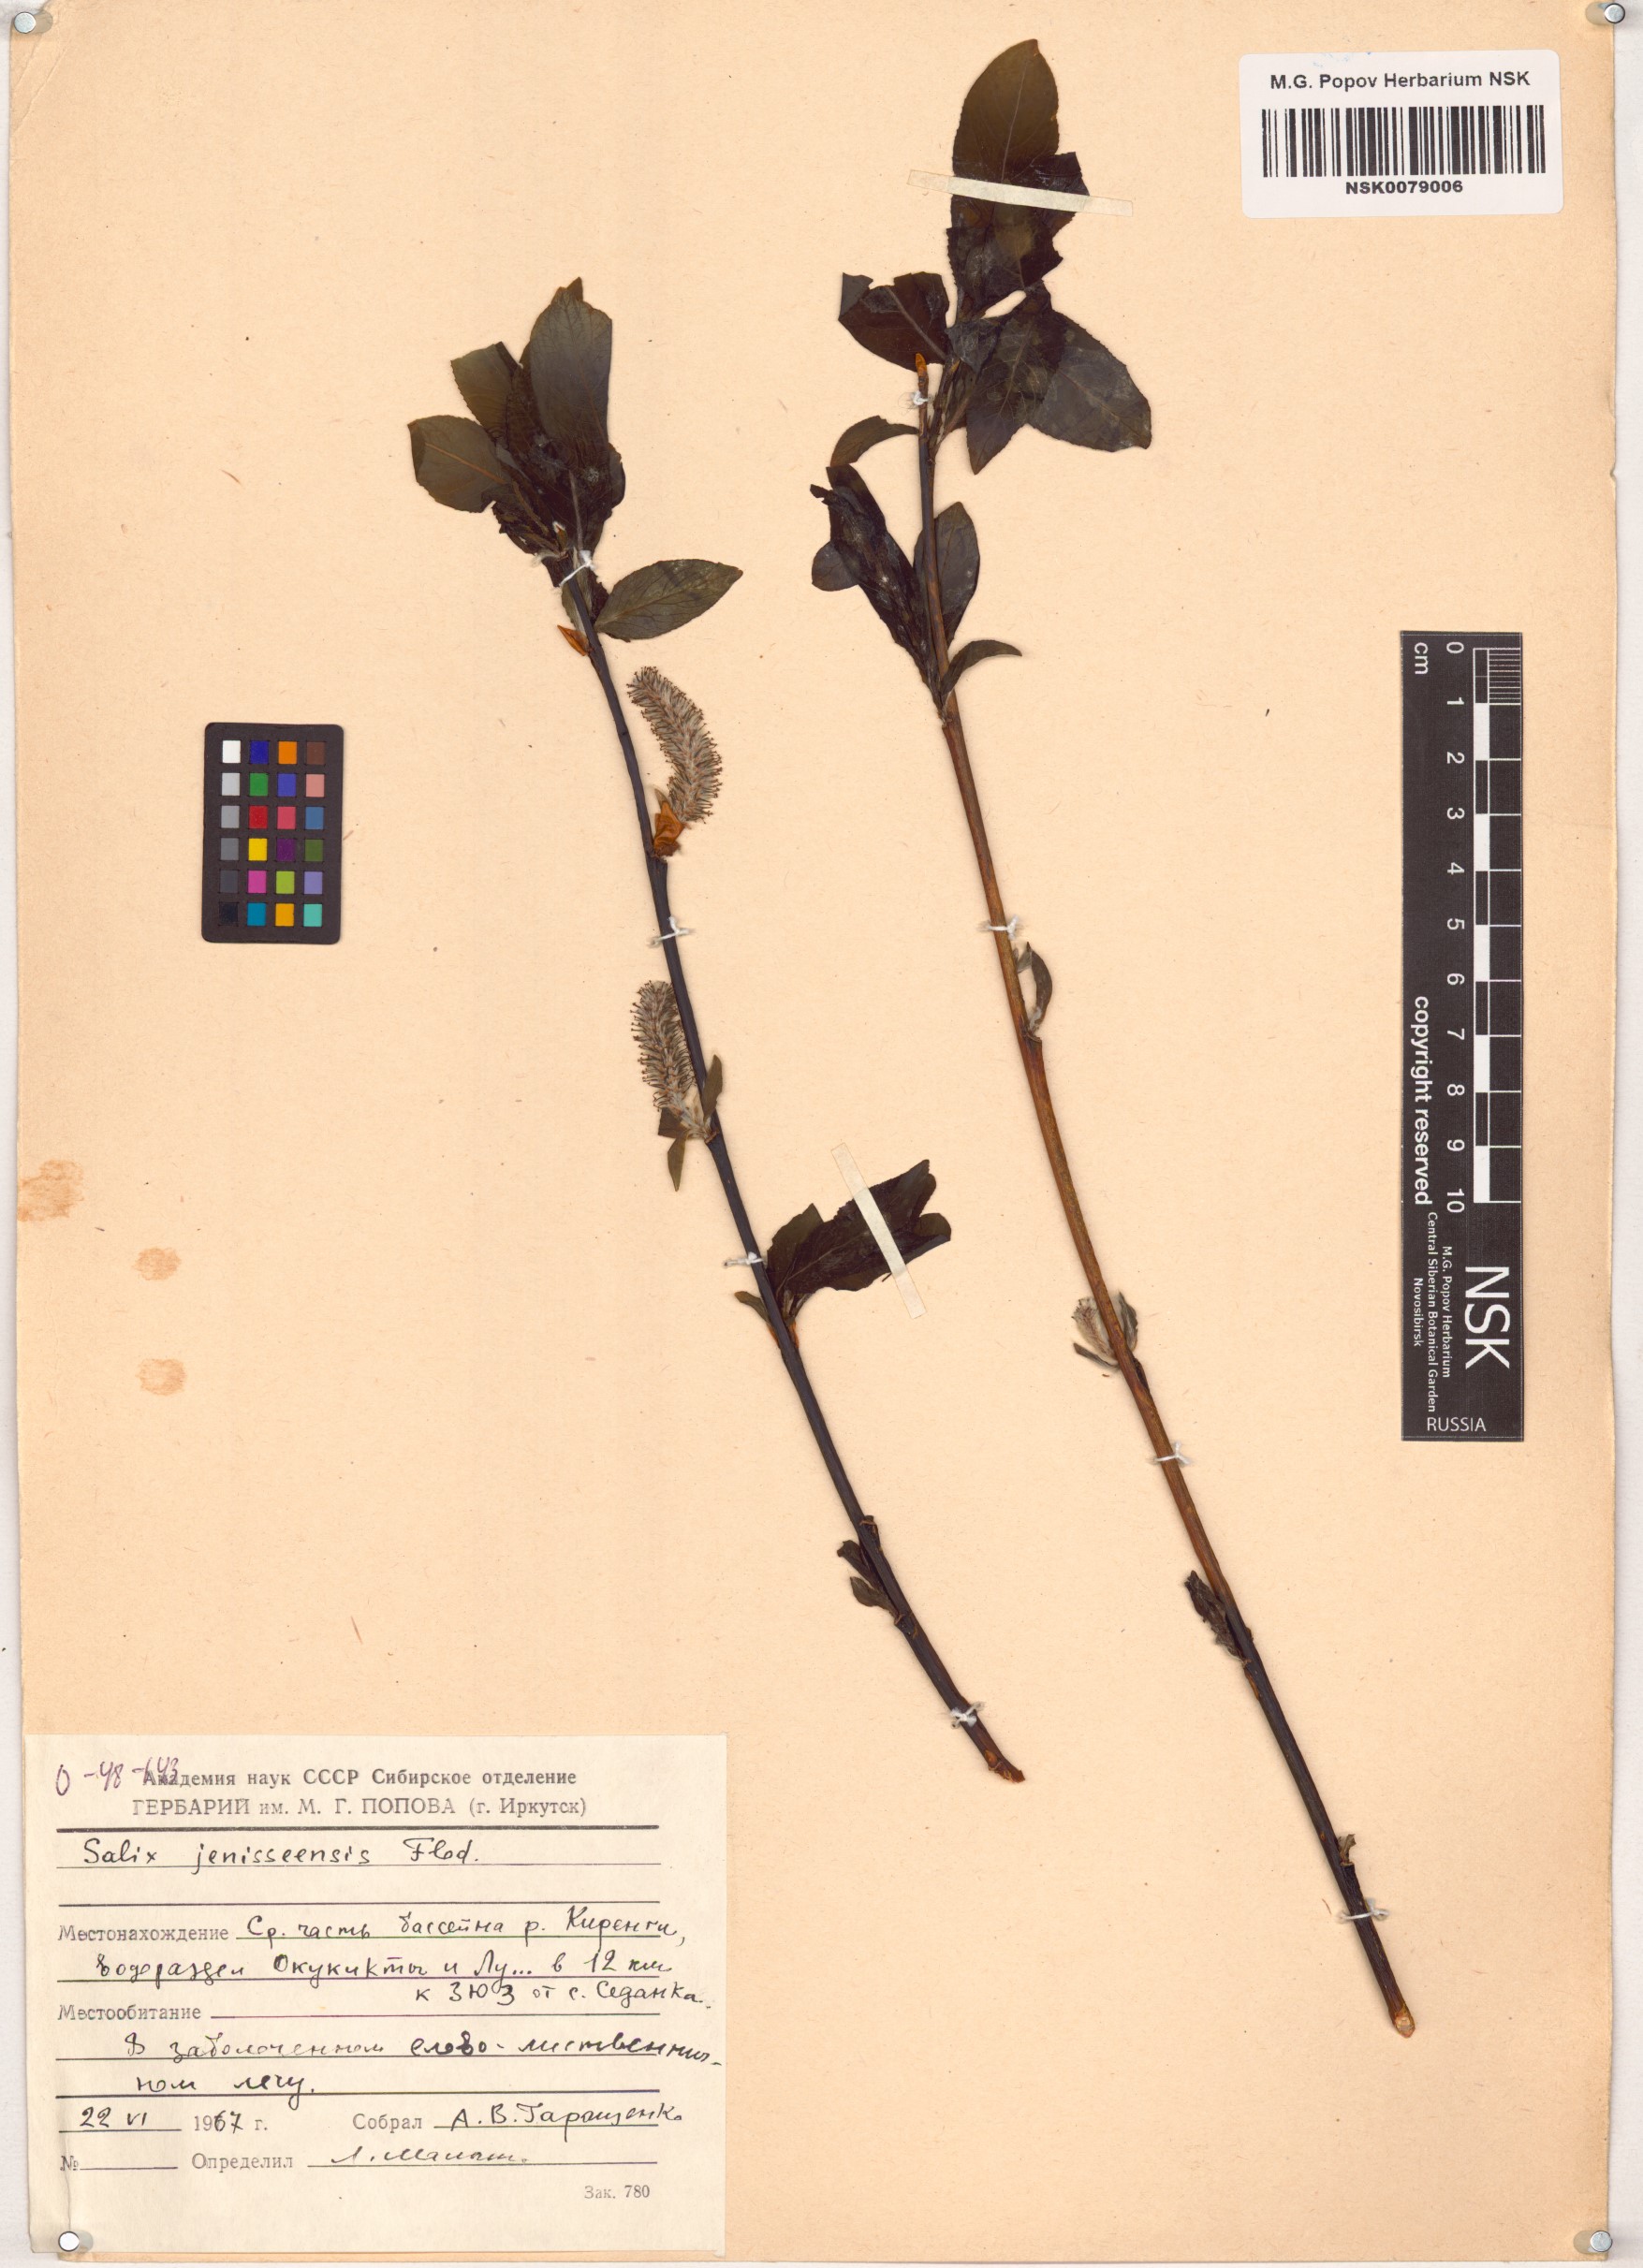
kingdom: Plantae
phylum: Tracheophyta
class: Magnoliopsida
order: Malpighiales
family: Salicaceae
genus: Salix
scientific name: Salix jenisseensis
